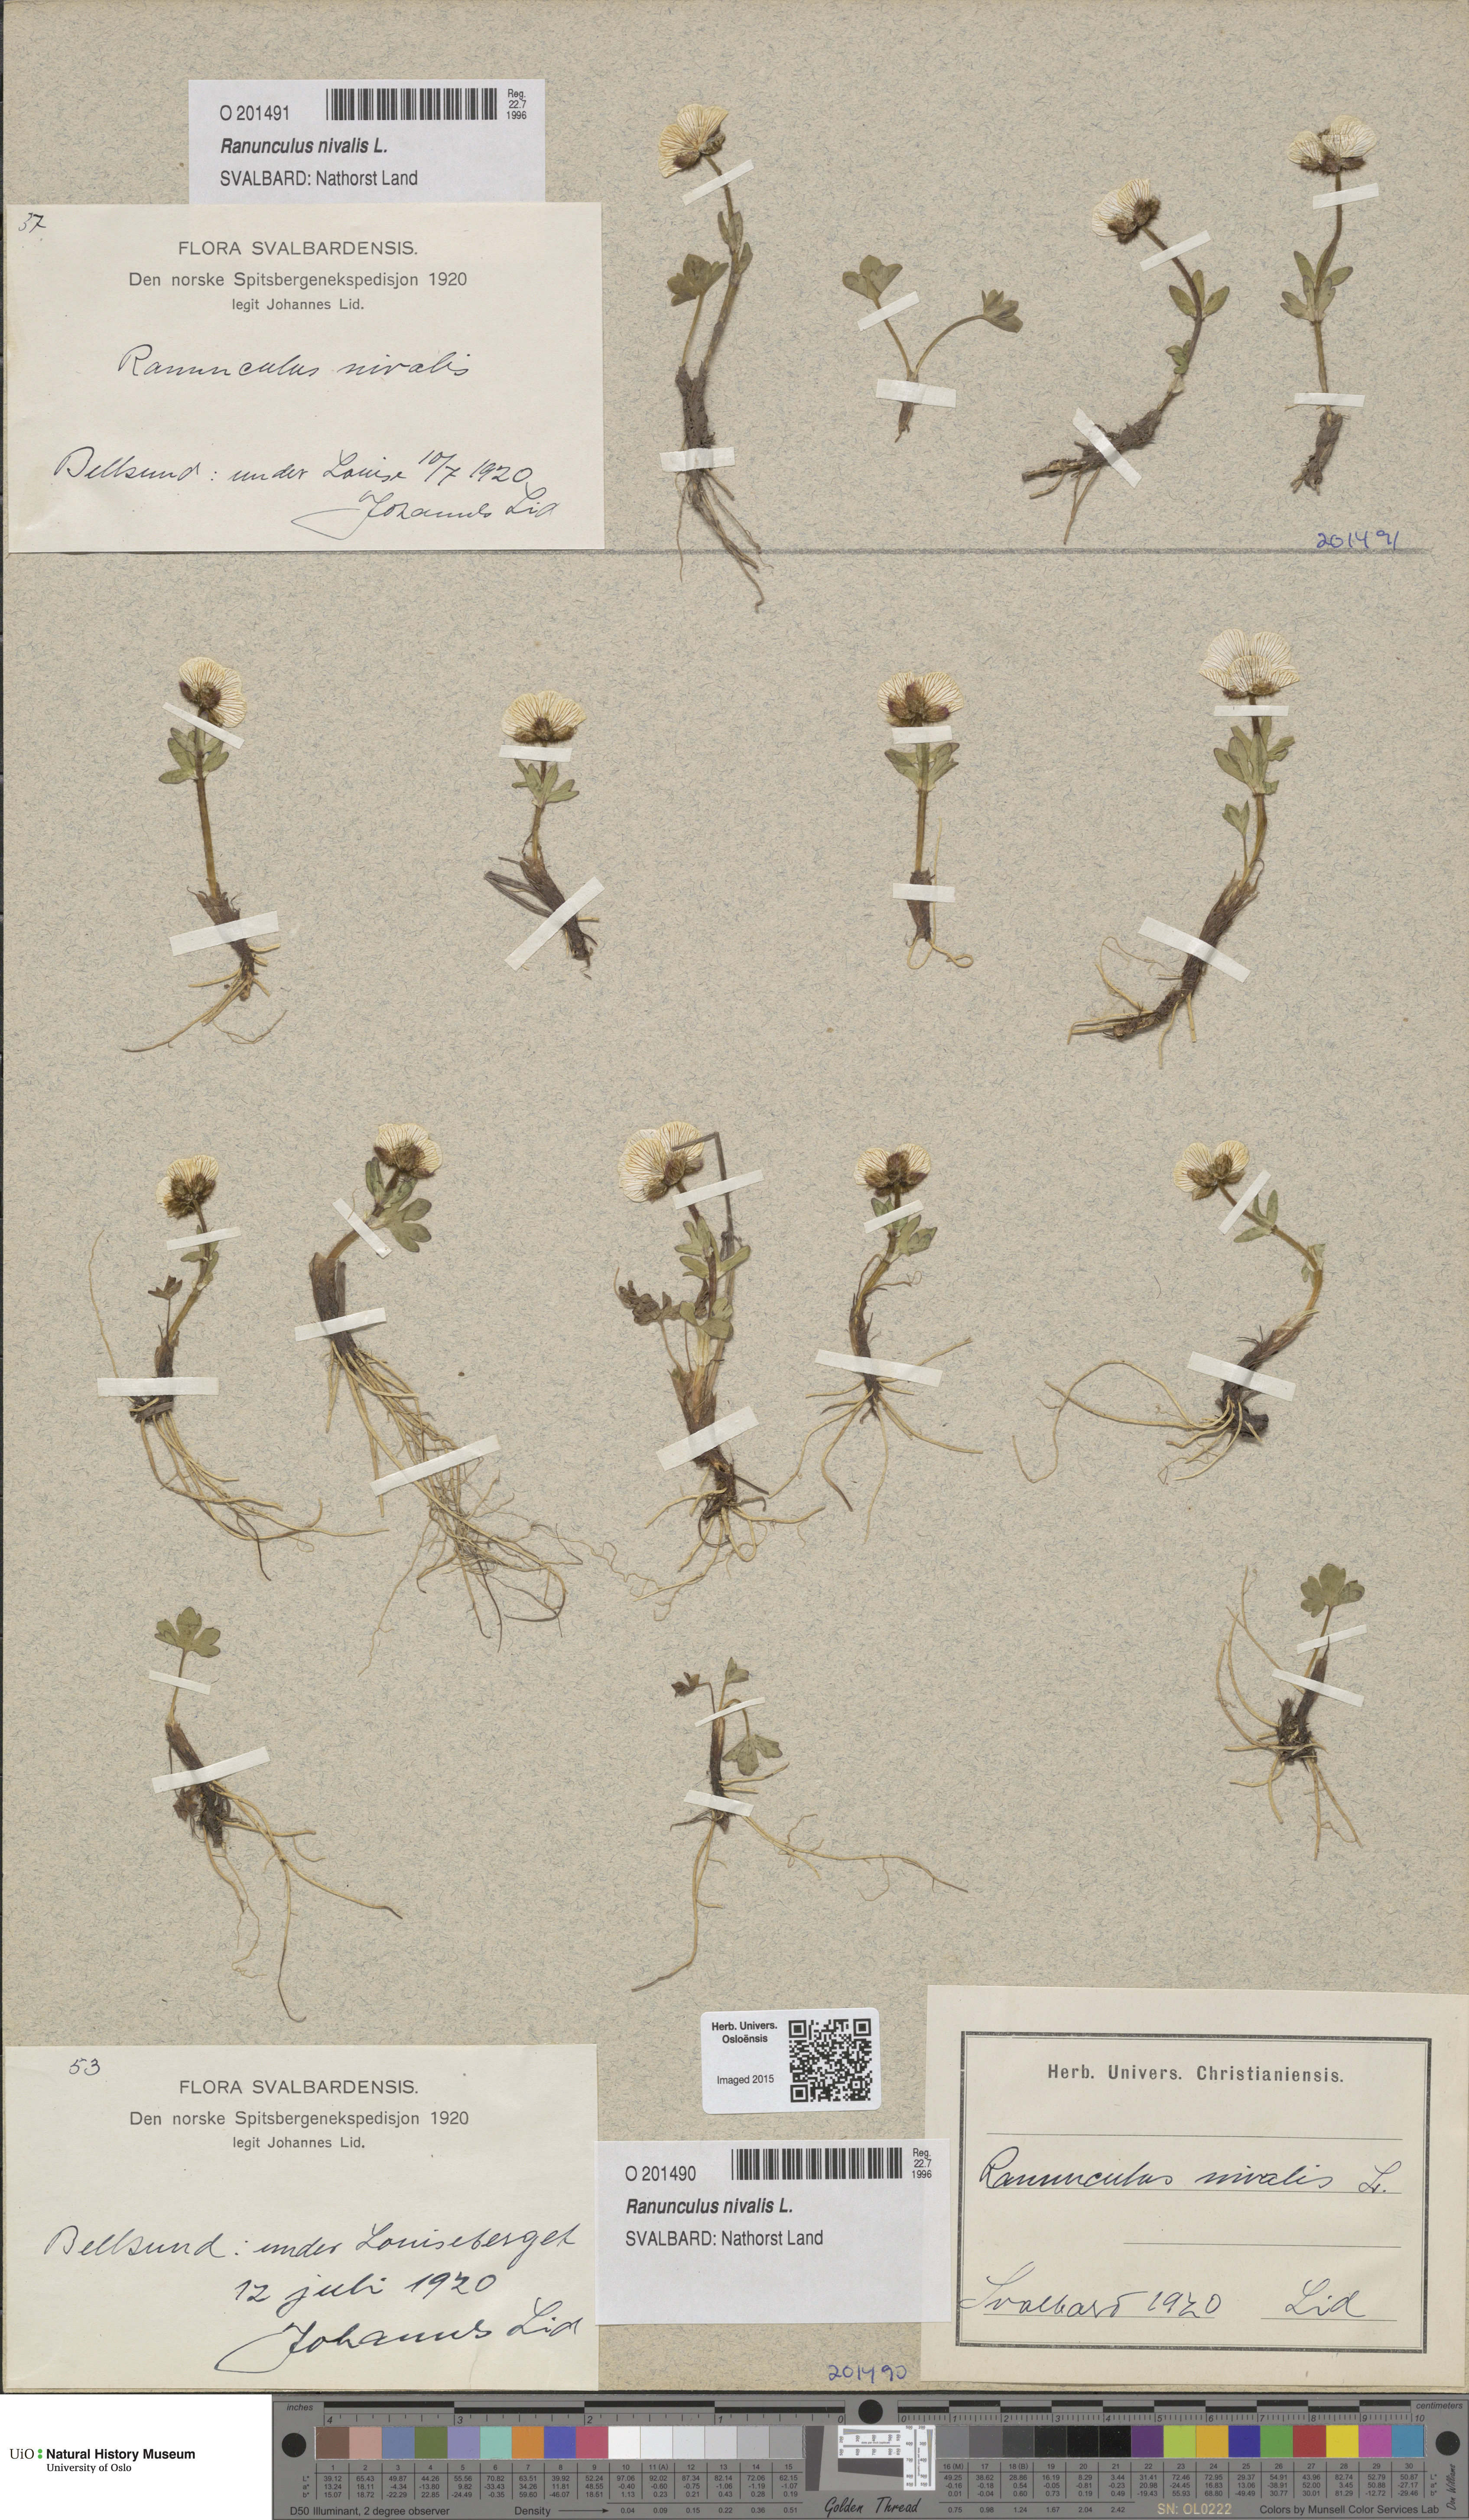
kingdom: Plantae
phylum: Tracheophyta
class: Magnoliopsida
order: Ranunculales
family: Ranunculaceae
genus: Ranunculus
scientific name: Ranunculus nivalis
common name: Snow buttercup
